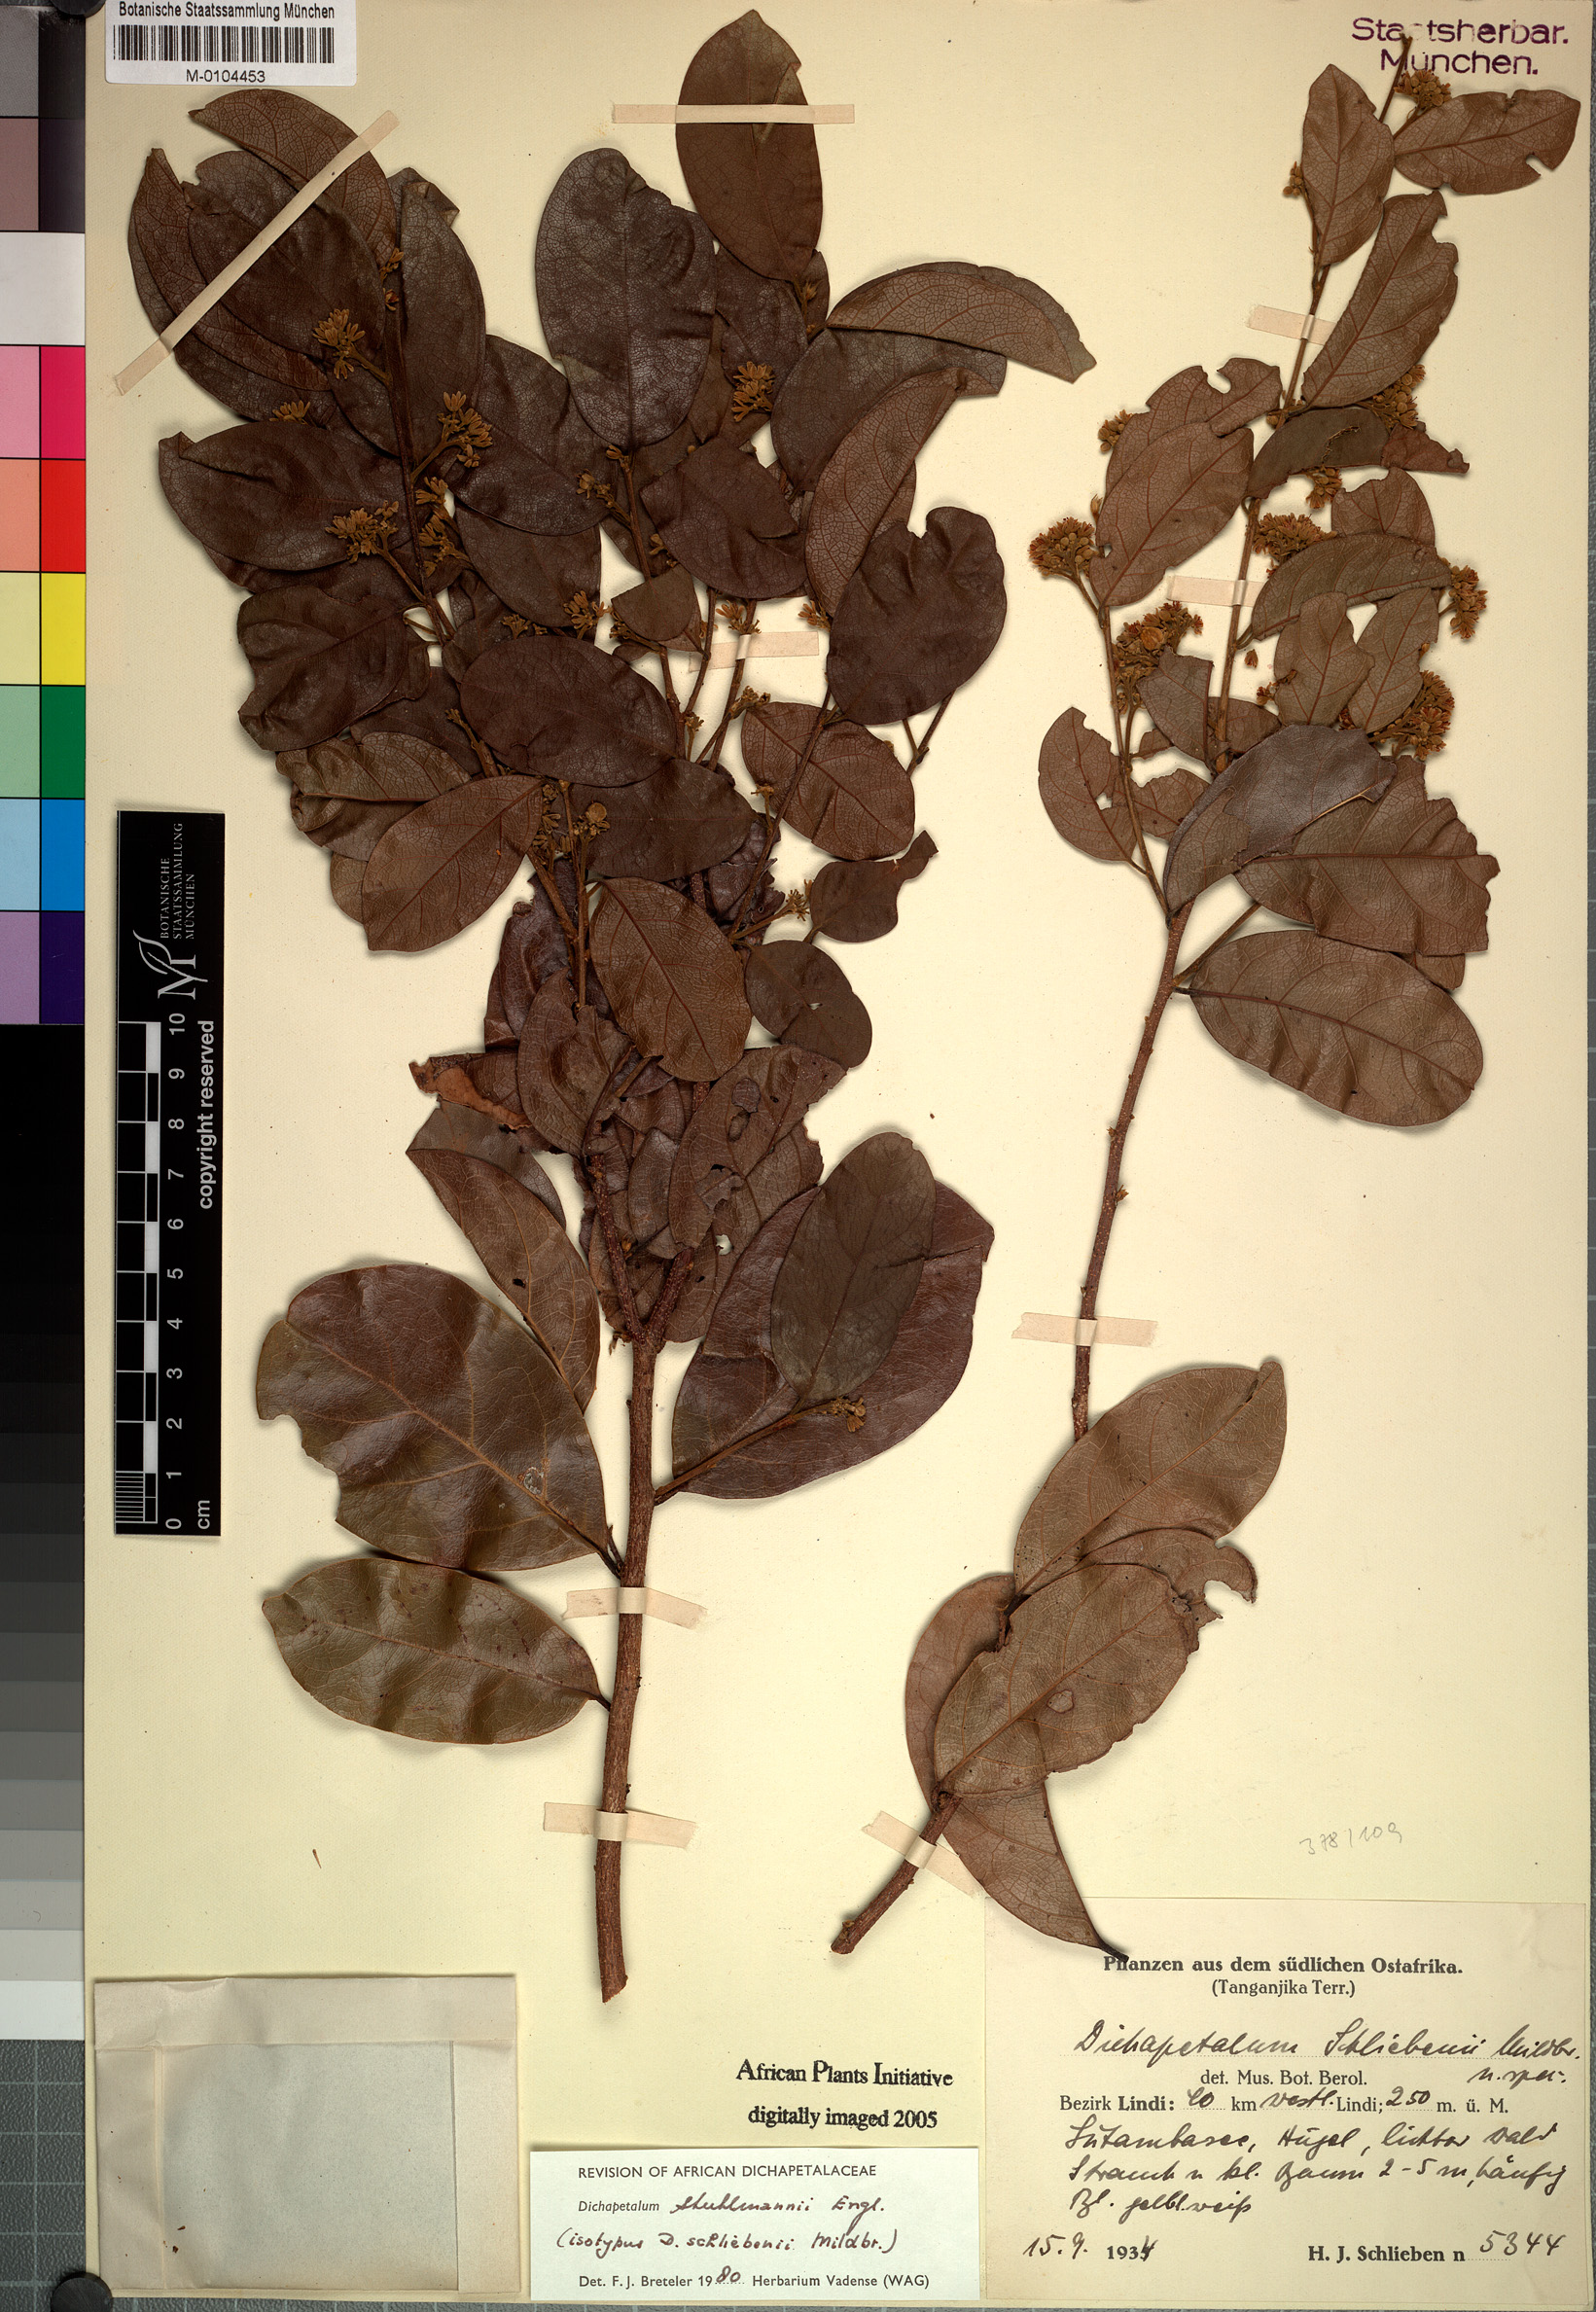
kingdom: Plantae
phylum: Tracheophyta
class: Magnoliopsida
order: Malpighiales
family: Dichapetalaceae
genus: Dichapetalum
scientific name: Dichapetalum stuhlmannii
